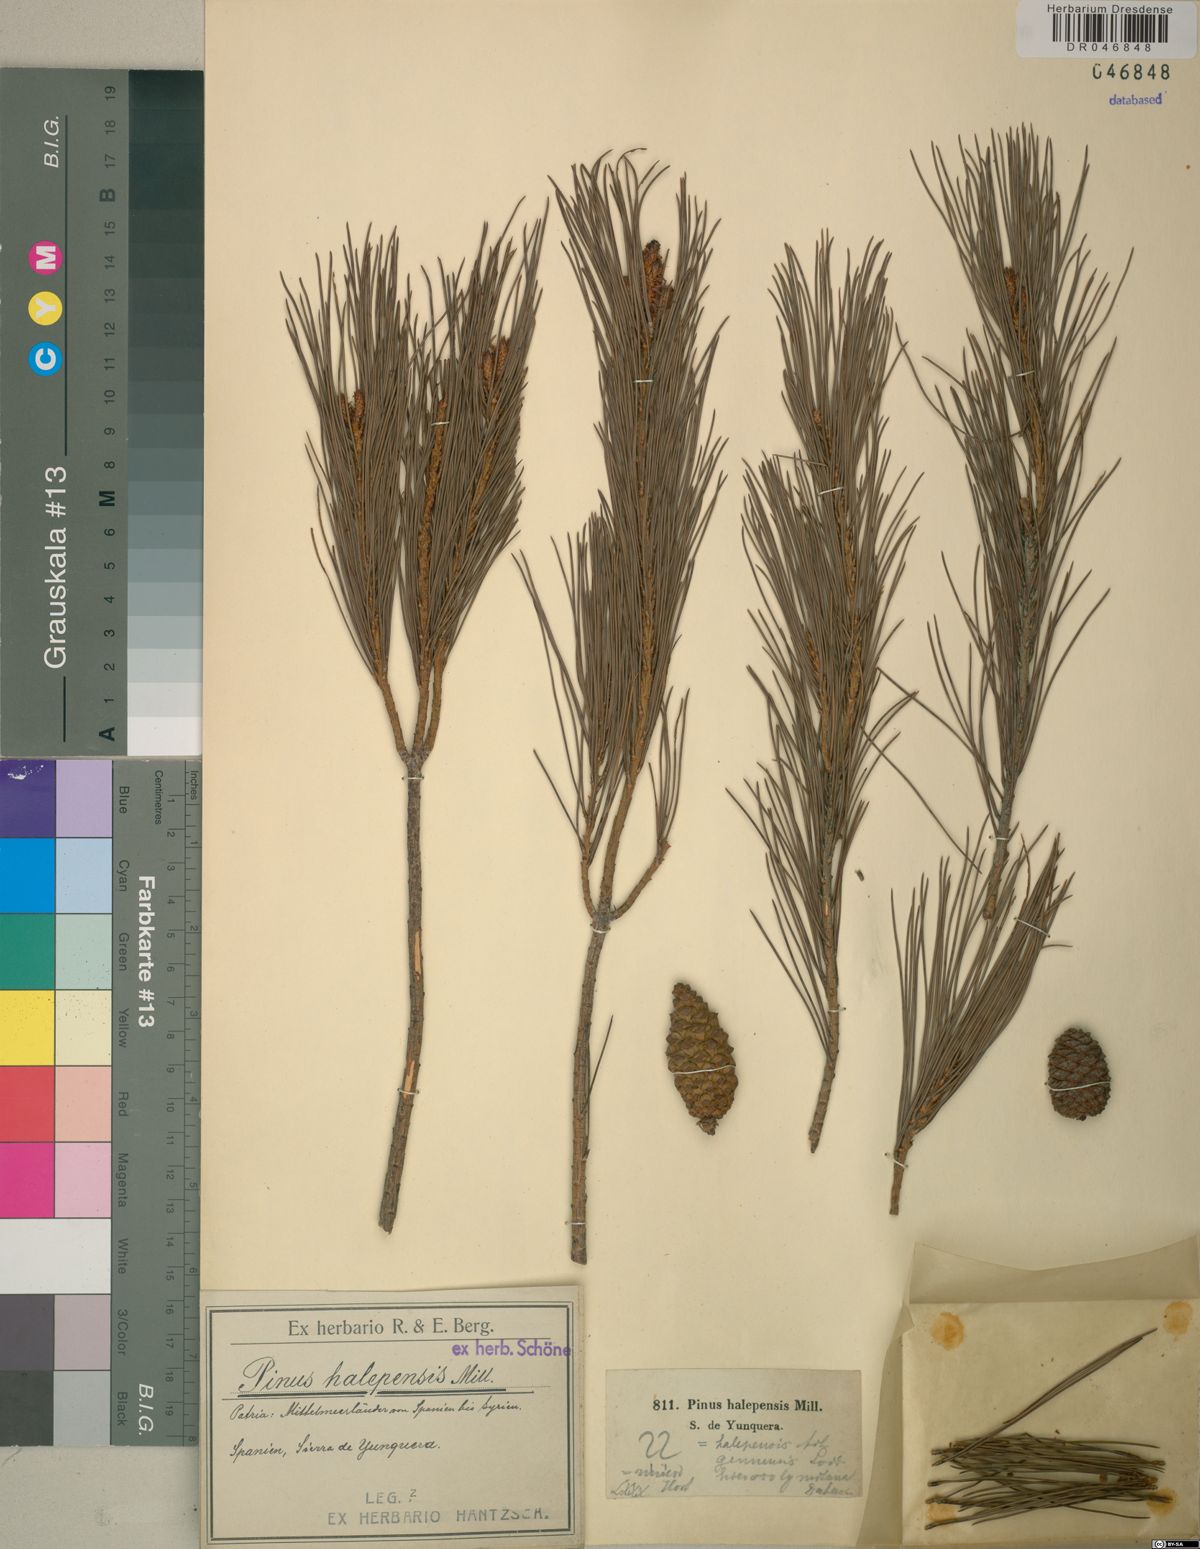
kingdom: Plantae
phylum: Tracheophyta
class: Pinopsida
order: Pinales
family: Pinaceae
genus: Pinus
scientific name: Pinus halepensis
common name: Aleppo pine
